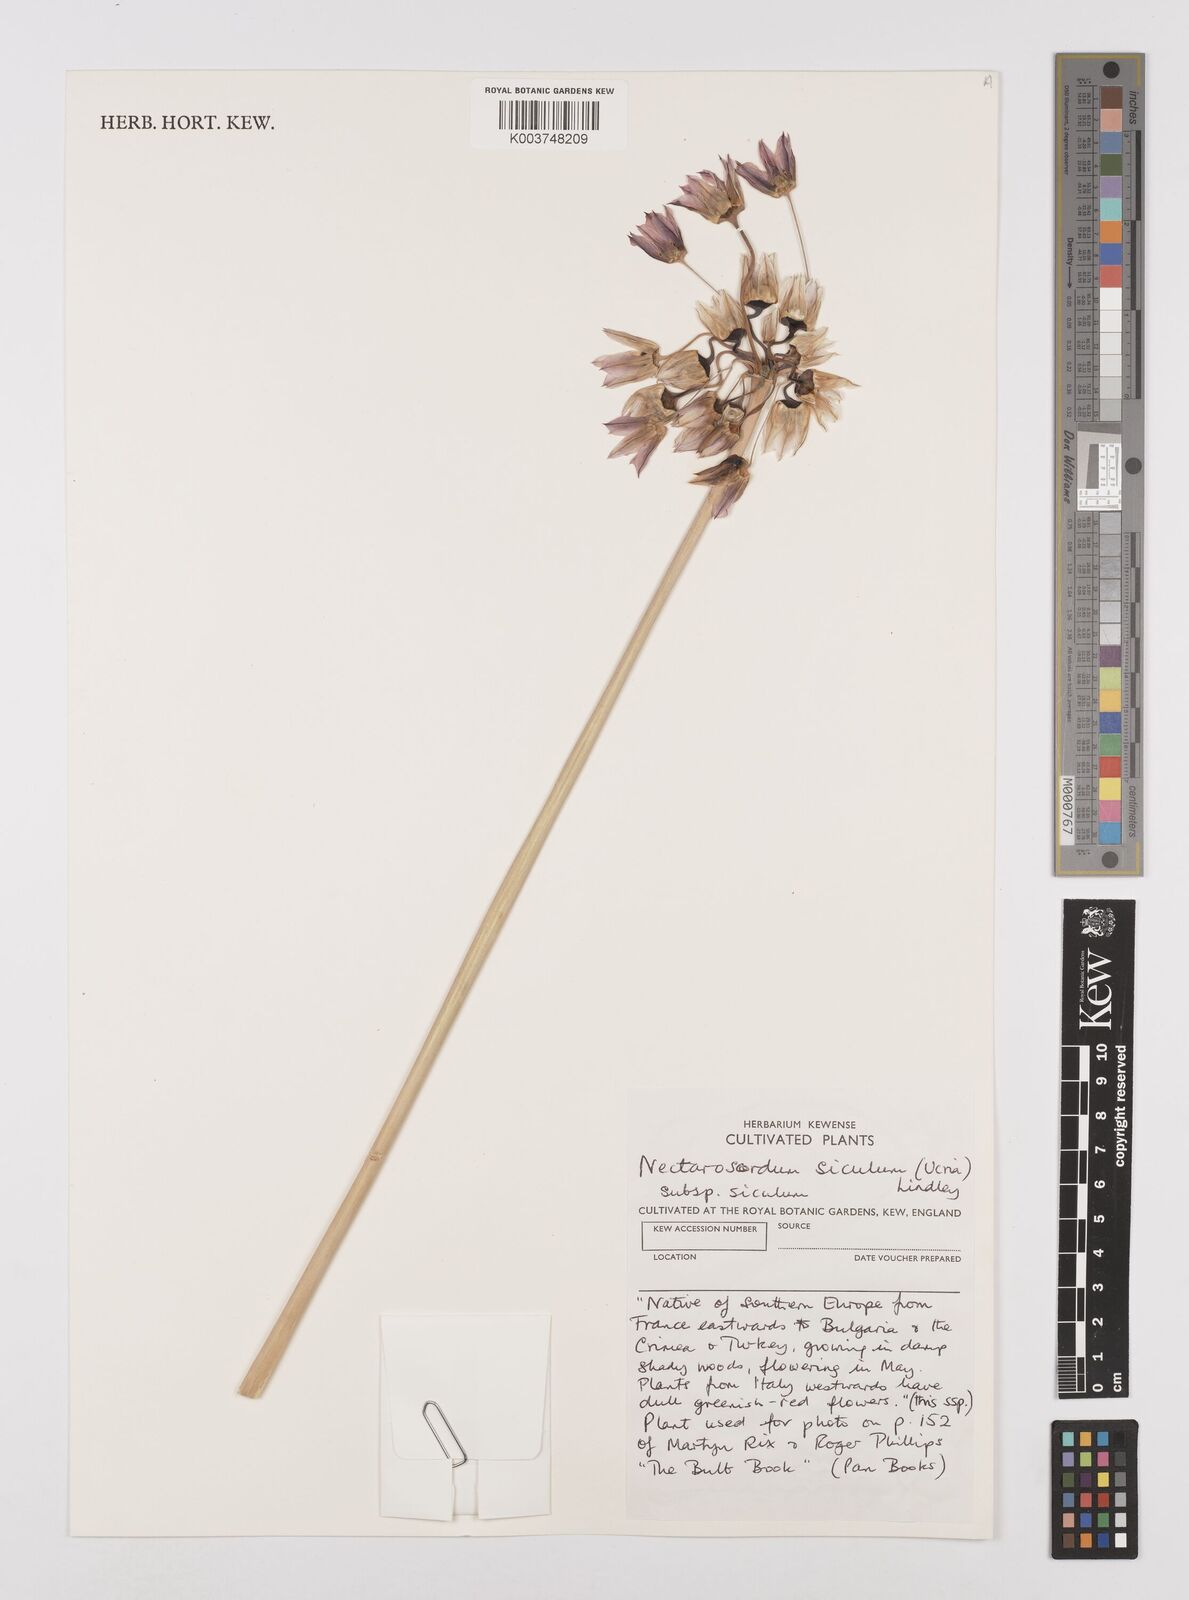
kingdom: Plantae
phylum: Tracheophyta
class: Liliopsida
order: Asparagales
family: Amaryllidaceae
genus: Allium
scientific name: Allium siculum
